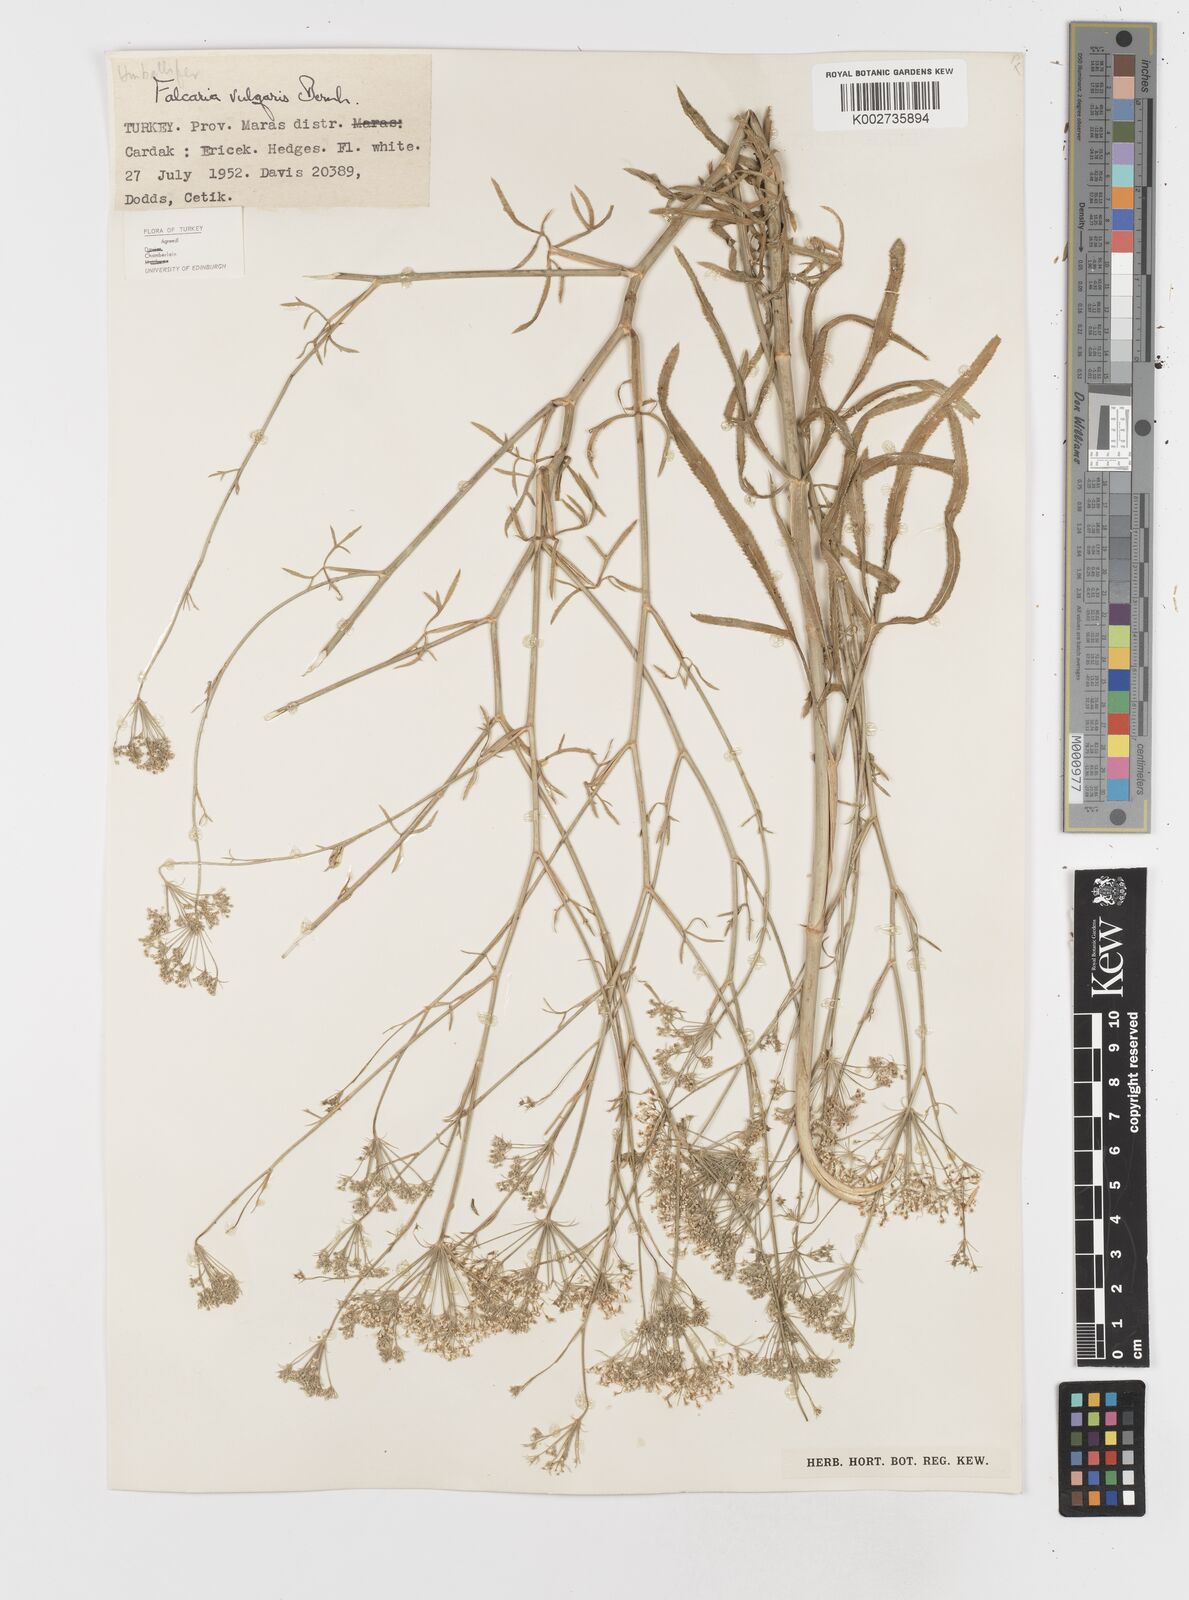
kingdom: Plantae
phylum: Tracheophyta
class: Magnoliopsida
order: Apiales
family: Apiaceae
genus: Falcaria
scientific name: Falcaria vulgaris
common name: Longleaf
